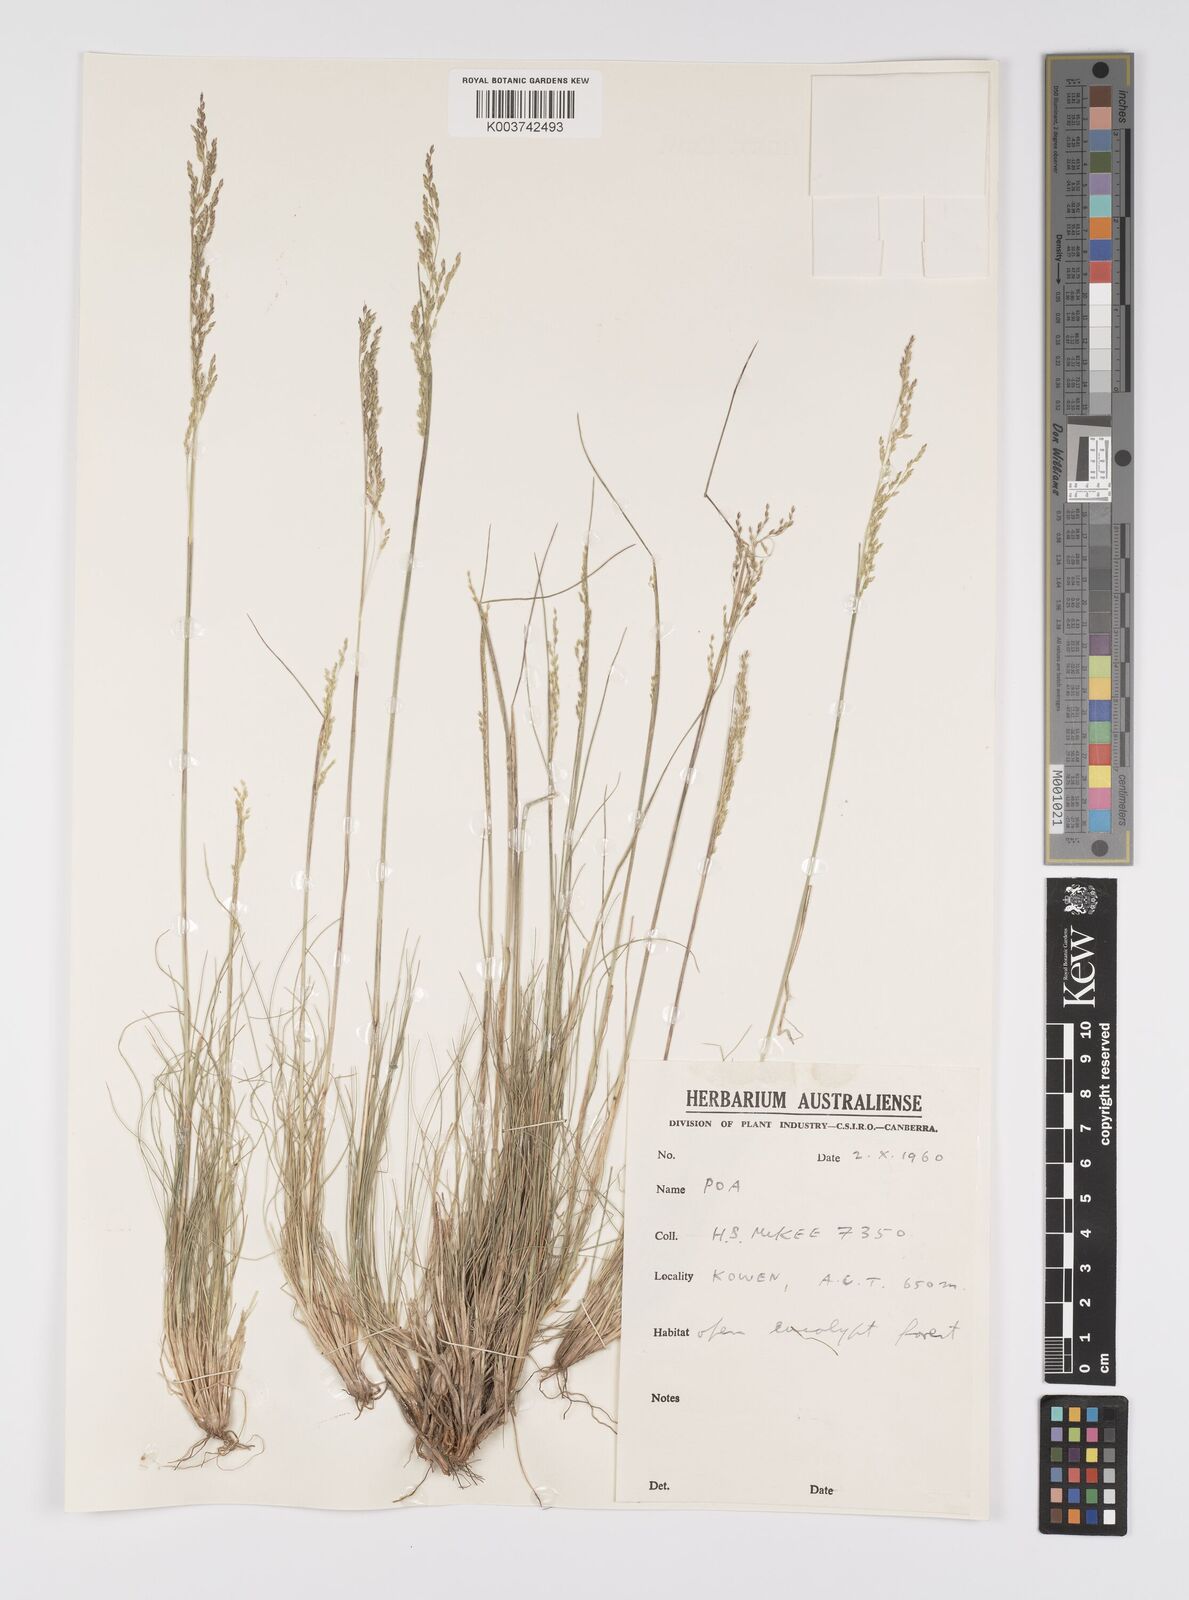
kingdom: Plantae
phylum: Tracheophyta
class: Liliopsida
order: Poales
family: Poaceae
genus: Poa
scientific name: Poa
